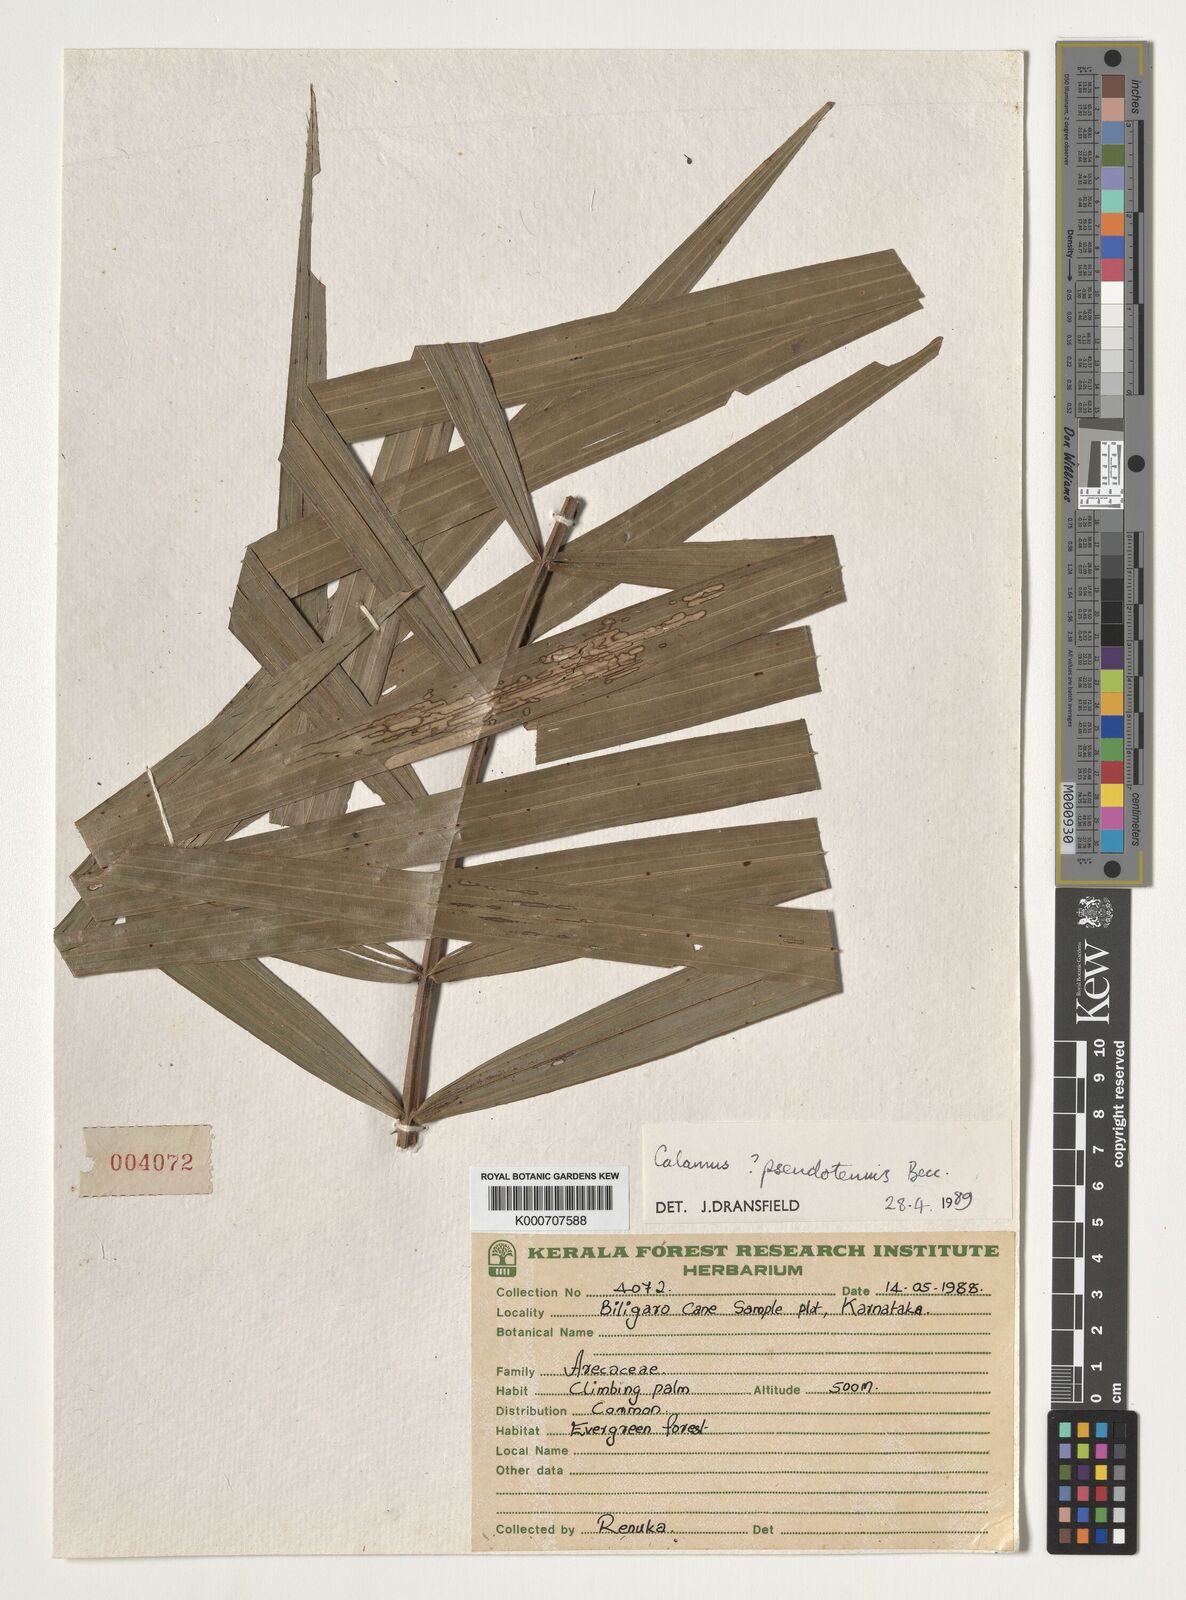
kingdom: Plantae
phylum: Tracheophyta
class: Liliopsida
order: Arecales
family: Arecaceae
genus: Calamus
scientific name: Calamus pseudotenuis
